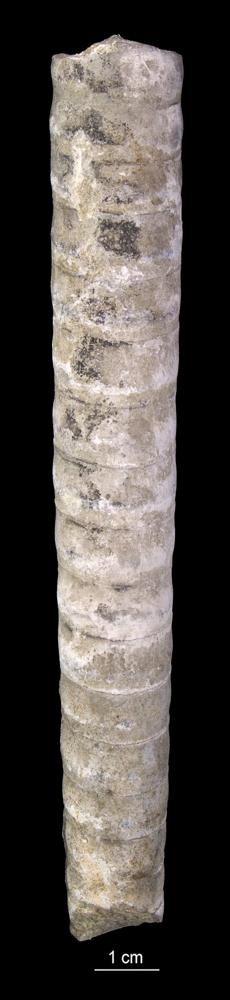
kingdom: Animalia
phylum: Mollusca
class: Cephalopoda
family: Endoceratidae
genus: Endoceras
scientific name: Endoceras
